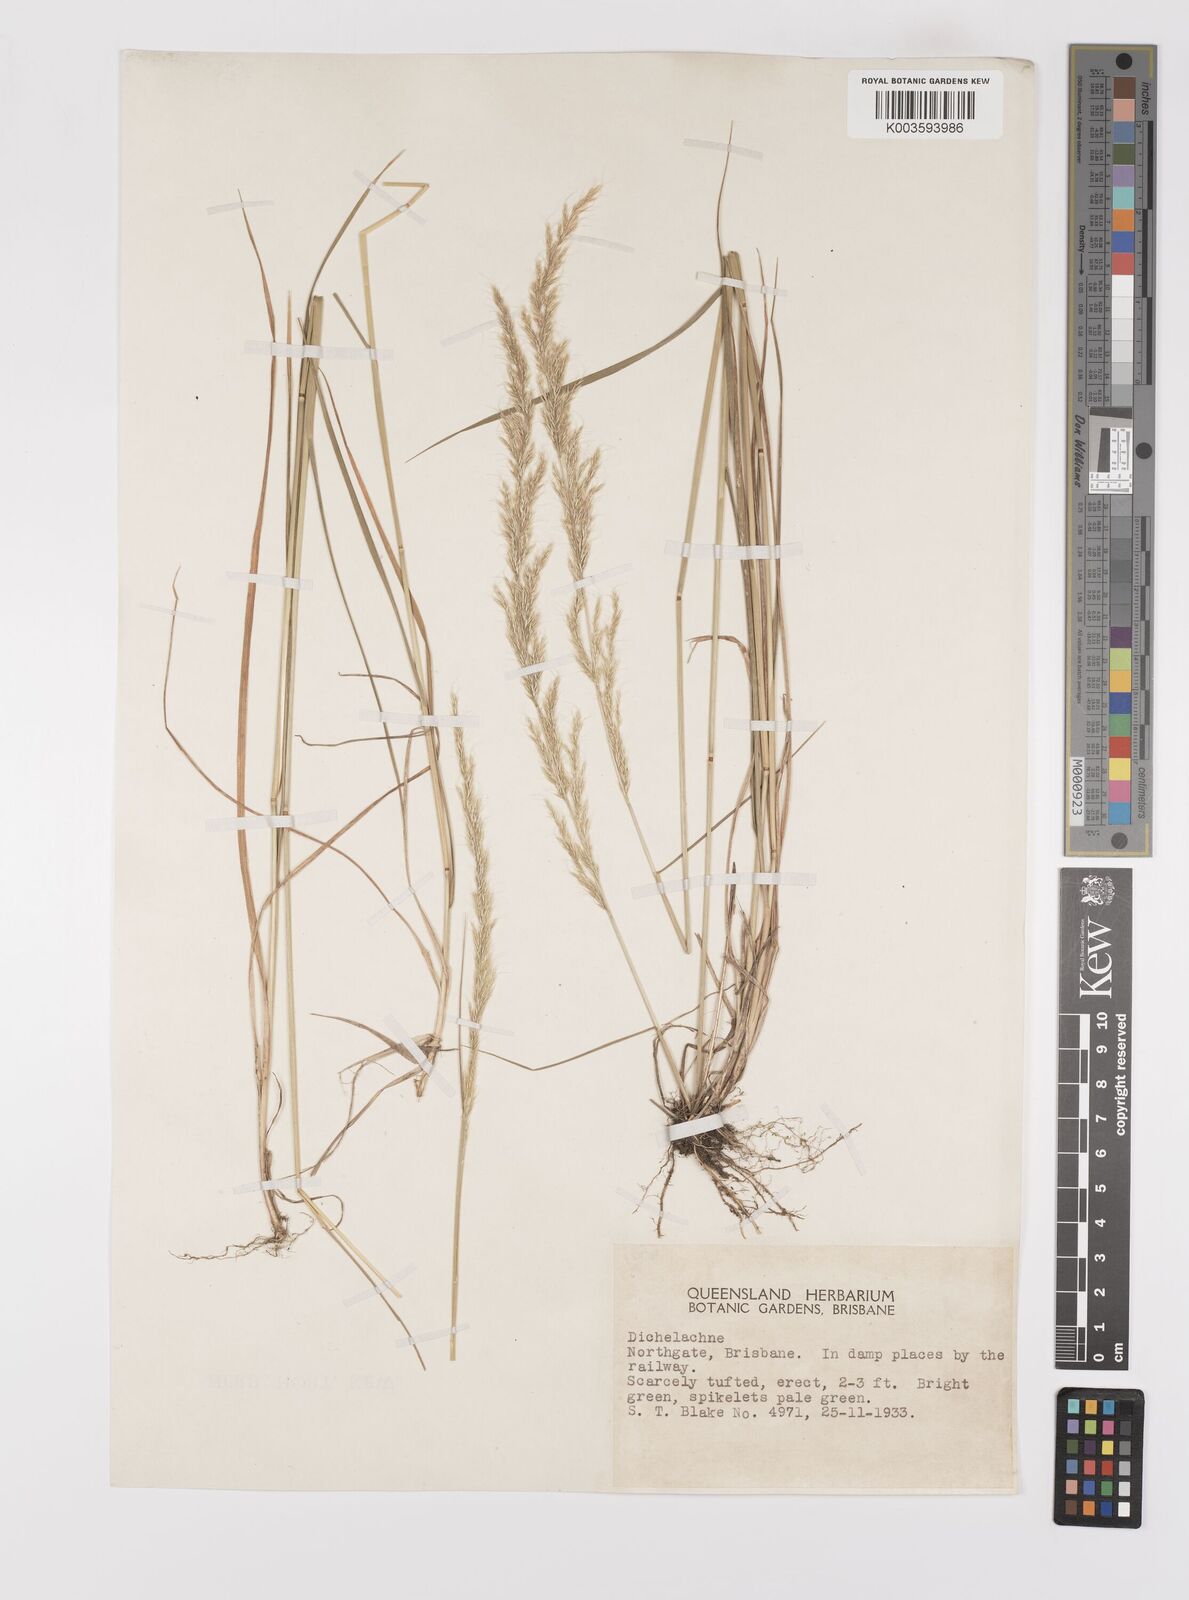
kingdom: Plantae
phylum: Tracheophyta
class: Liliopsida
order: Poales
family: Poaceae
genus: Dichelachne
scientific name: Dichelachne micrantha
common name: Plumegrass
